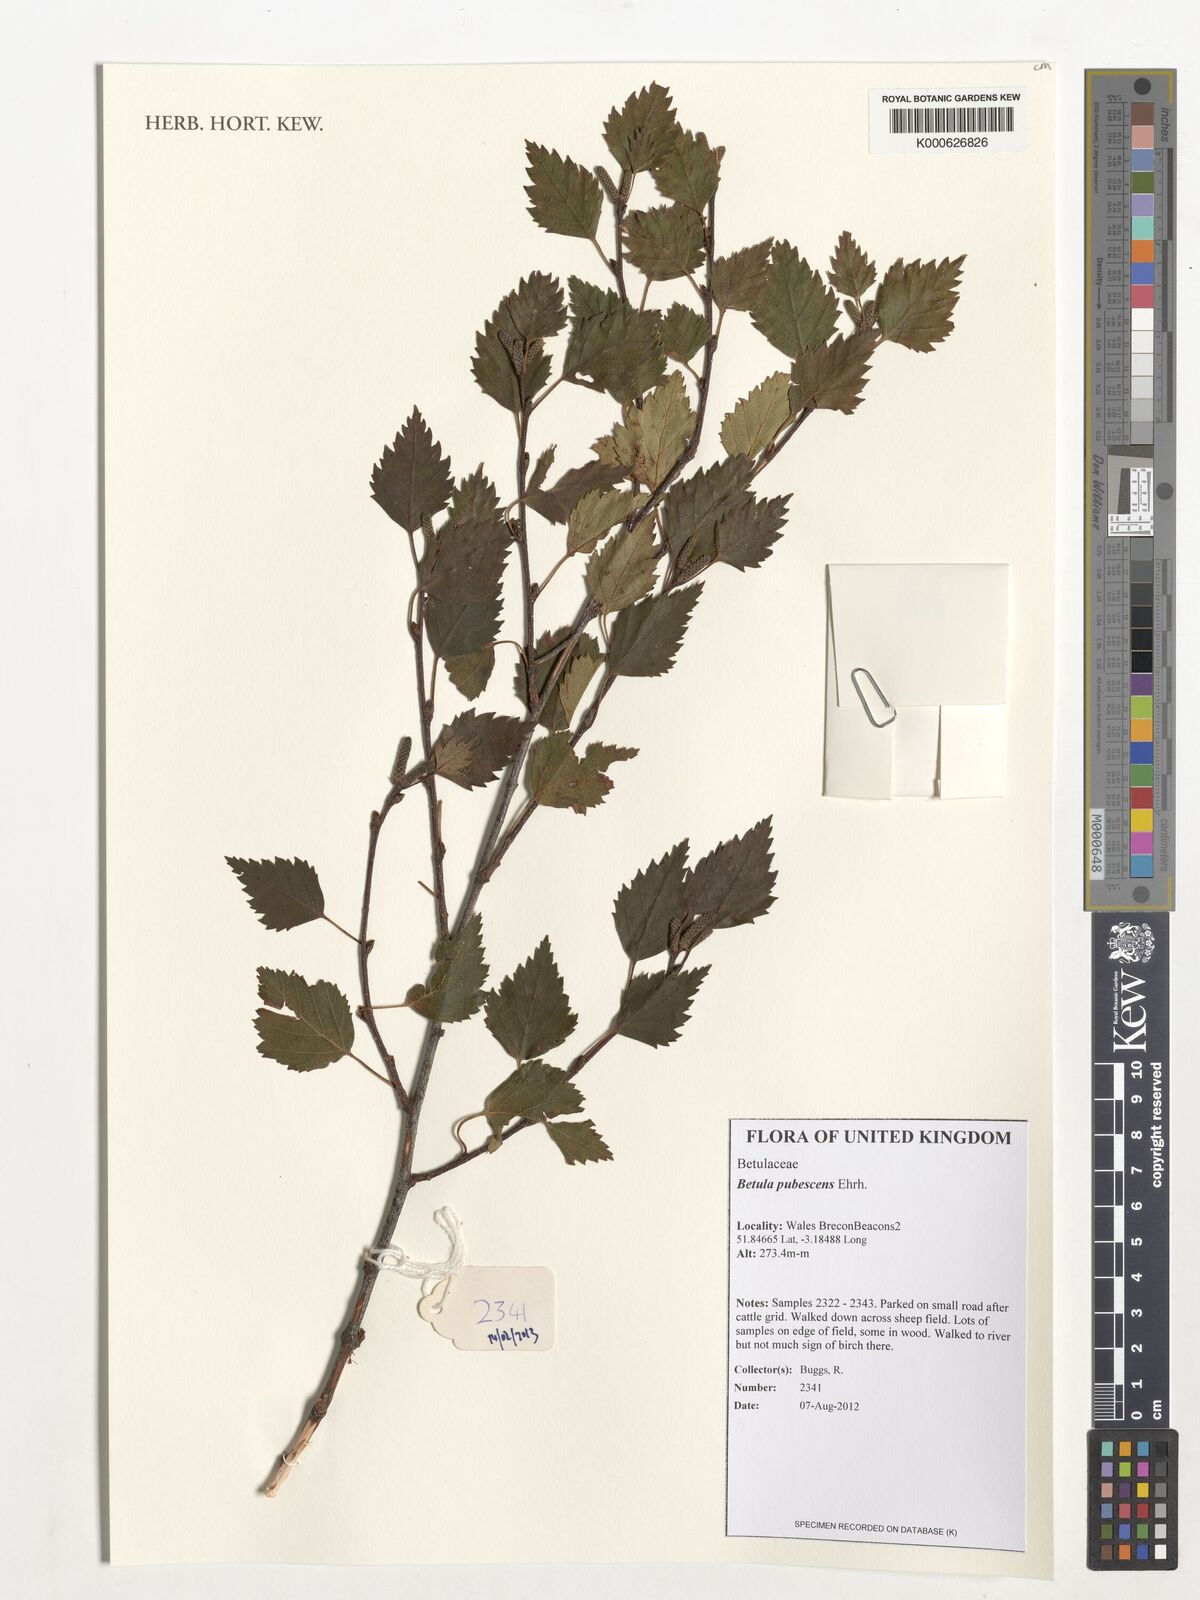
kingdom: Plantae
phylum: Tracheophyta
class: Magnoliopsida
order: Fagales
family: Betulaceae
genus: Betula
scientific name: Betula pubescens
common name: Downy birch
